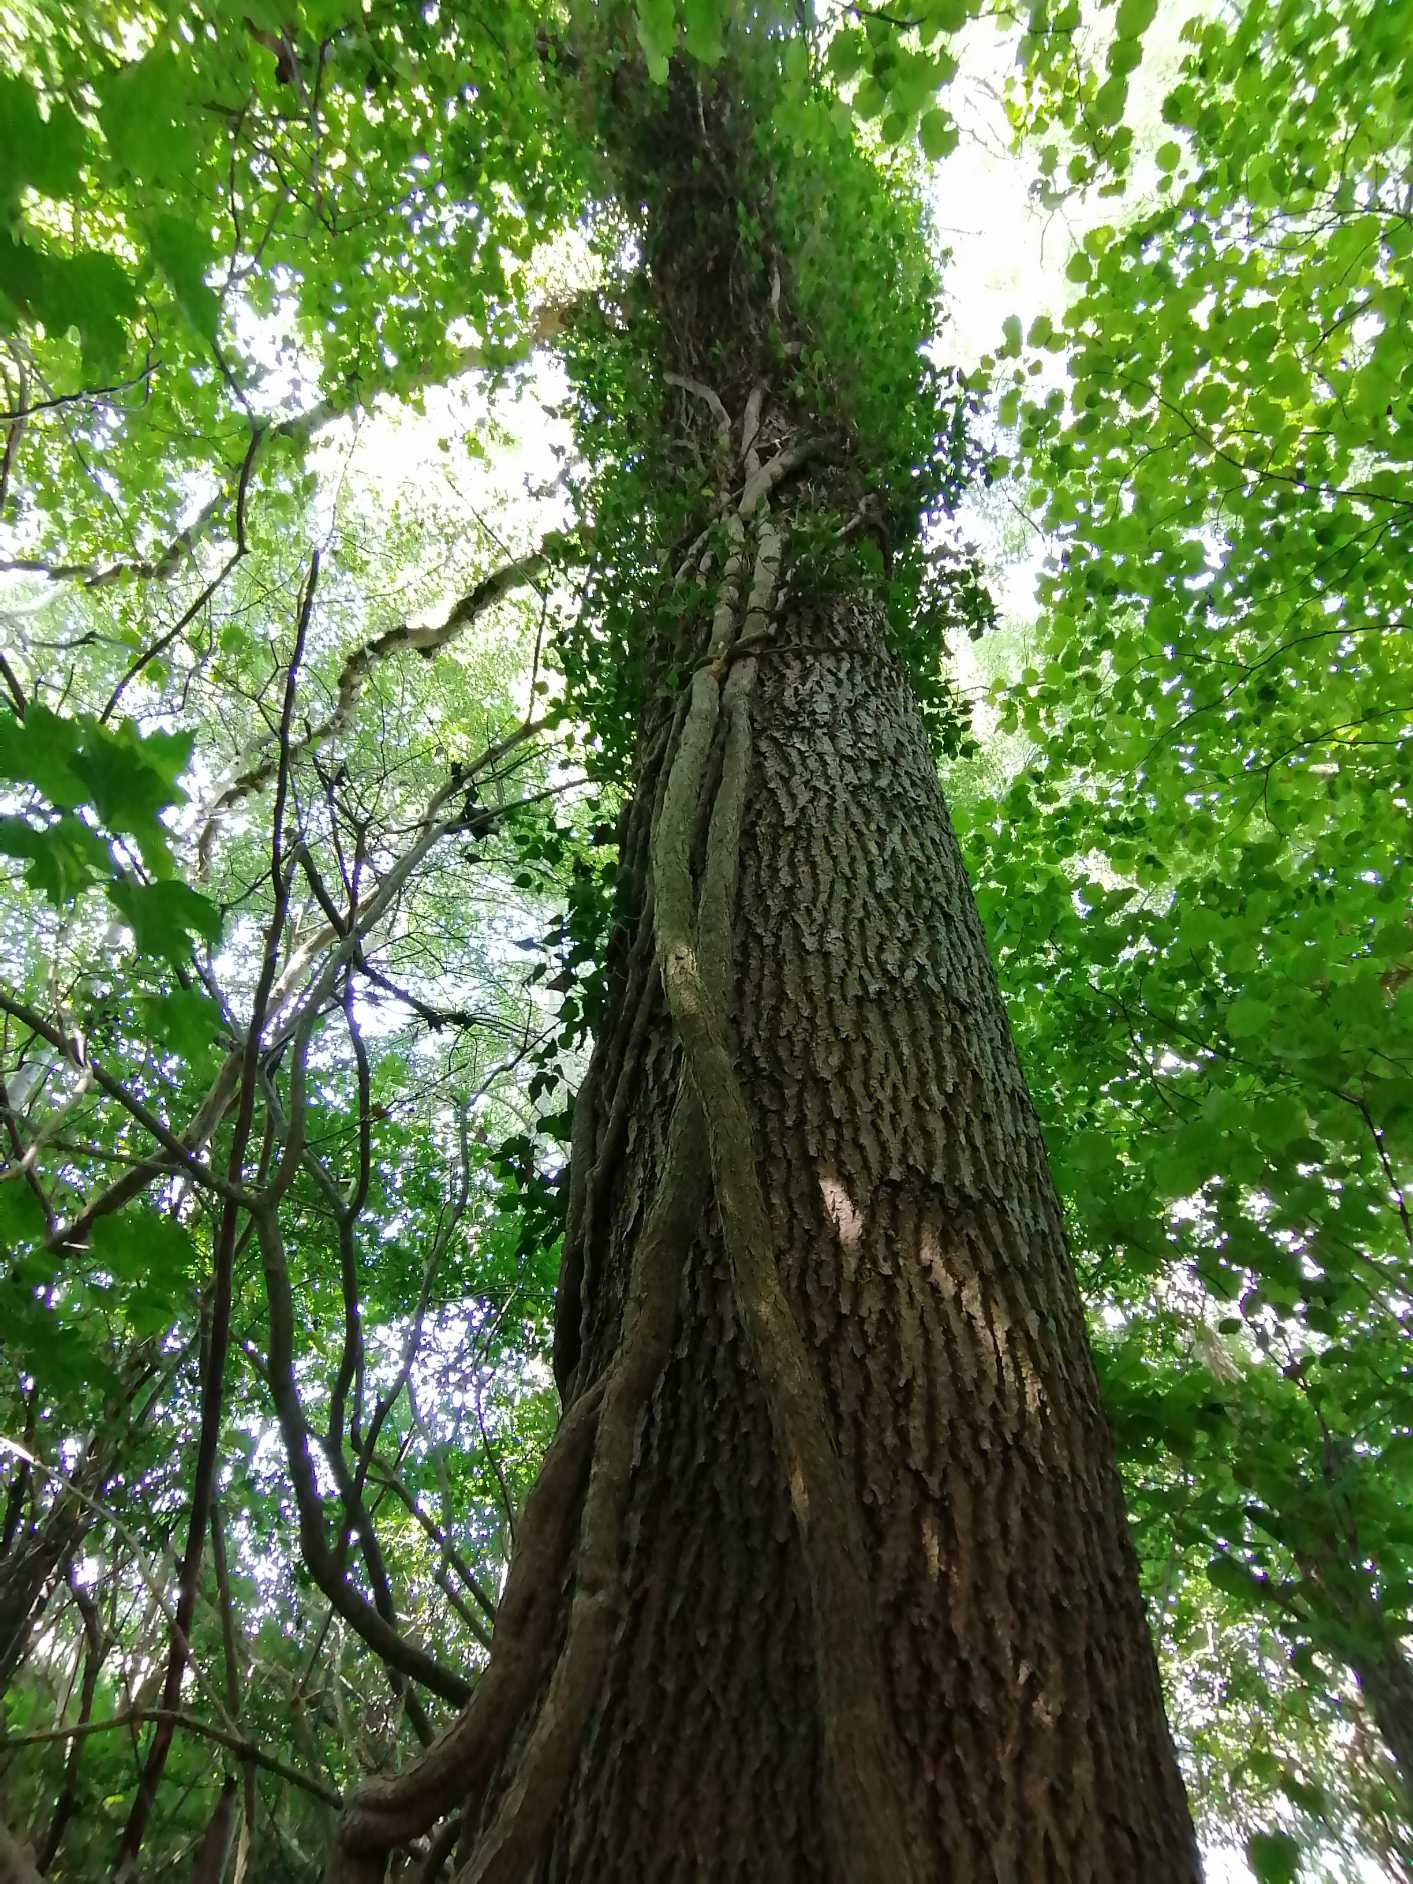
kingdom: Plantae
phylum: Tracheophyta
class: Magnoliopsida
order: Apiales
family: Araliaceae
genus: Hedera
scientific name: Hedera helix
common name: Vedbend
